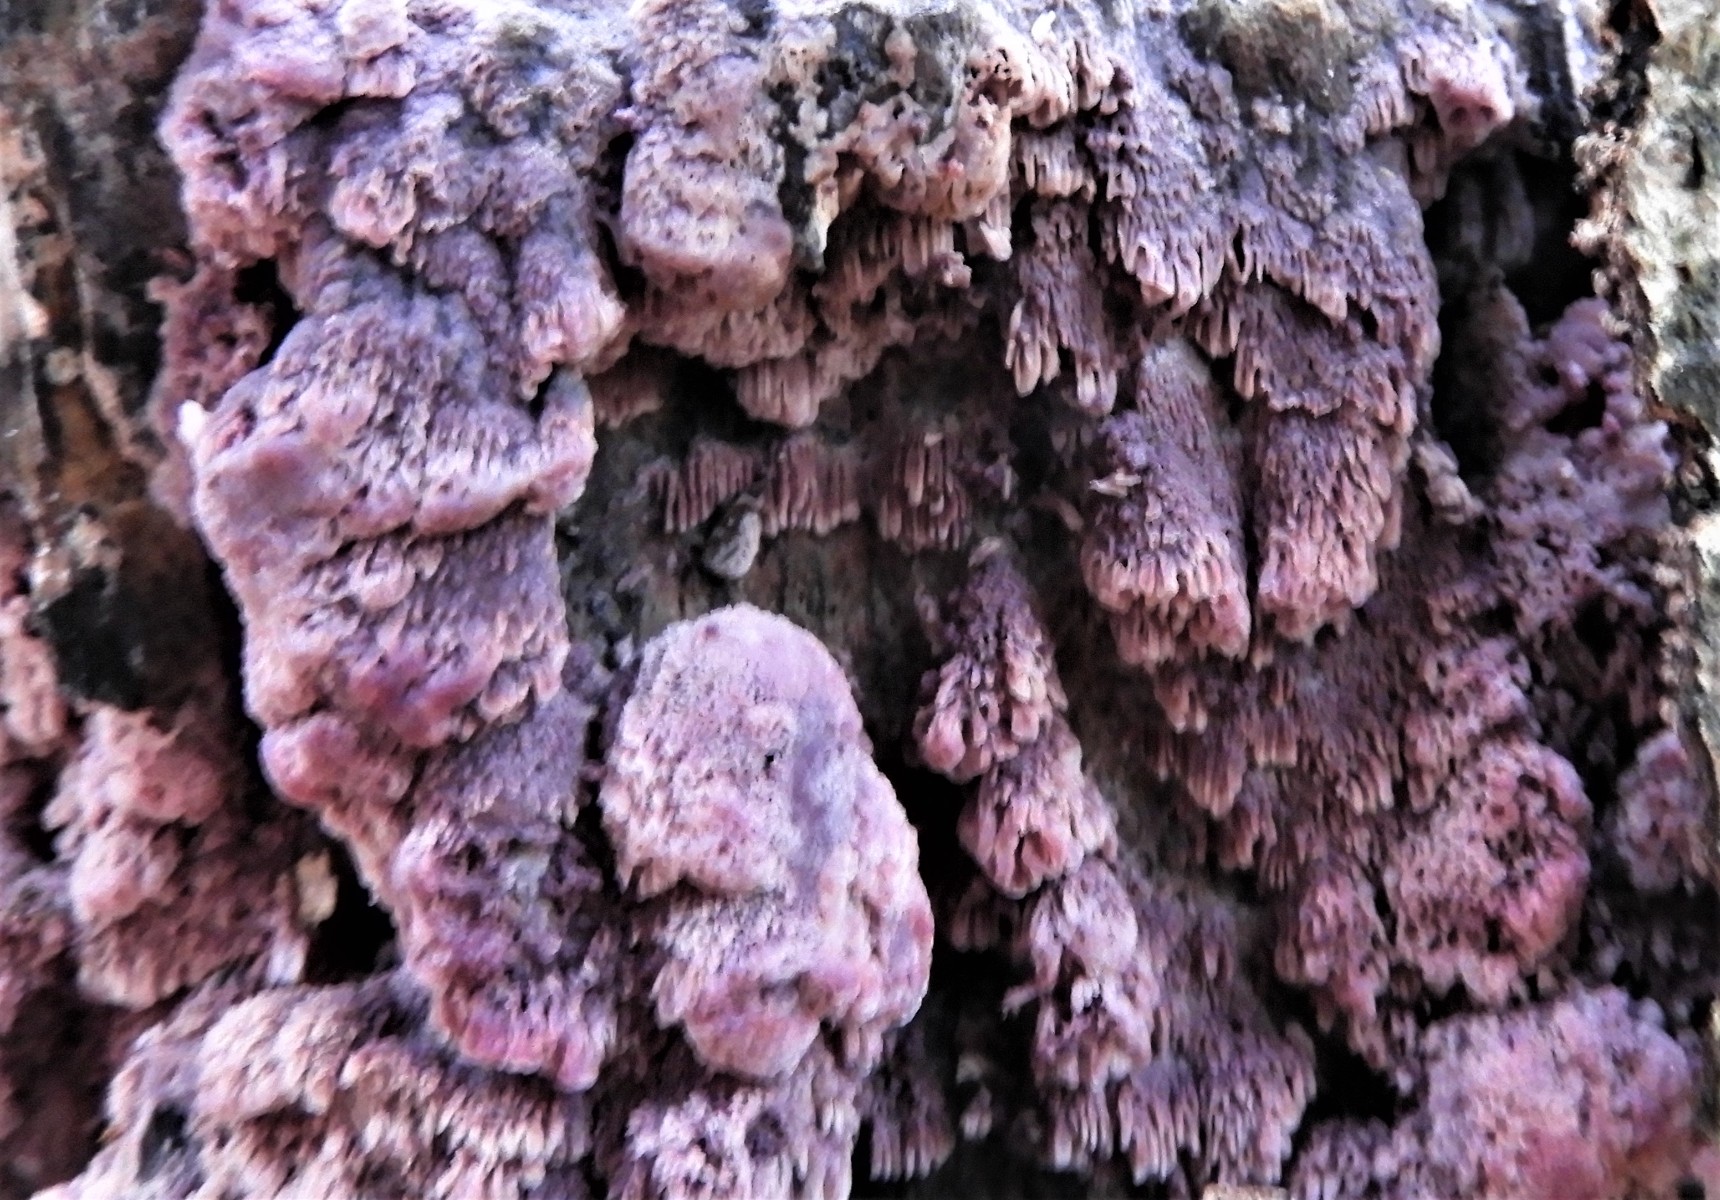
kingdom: Fungi
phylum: Basidiomycota
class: Agaricomycetes
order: Polyporales
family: Irpicaceae
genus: Ceriporia
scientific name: Ceriporia excelsa
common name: lilla voksporesvamp
